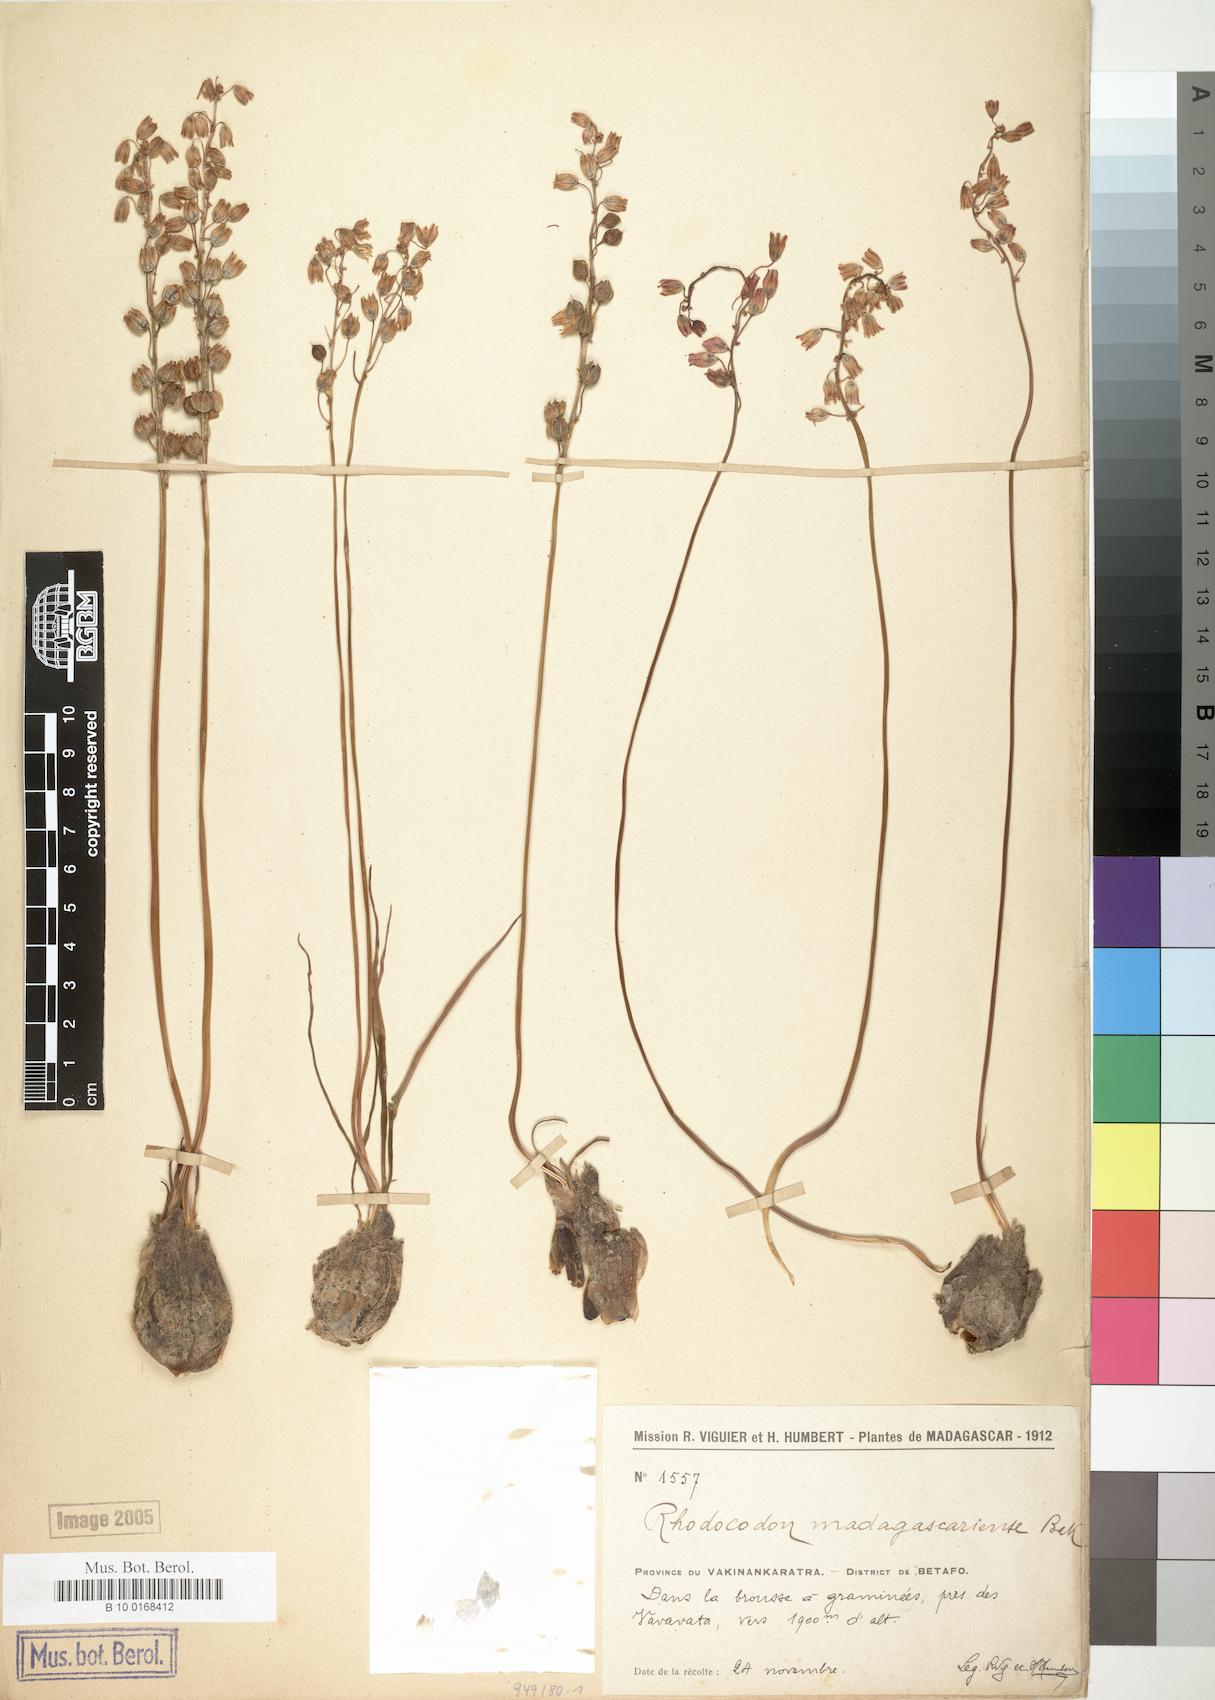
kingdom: Plantae
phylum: Tracheophyta
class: Liliopsida
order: Asparagales
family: Asparagaceae
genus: Drimia
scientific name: Drimia mascarenensis
